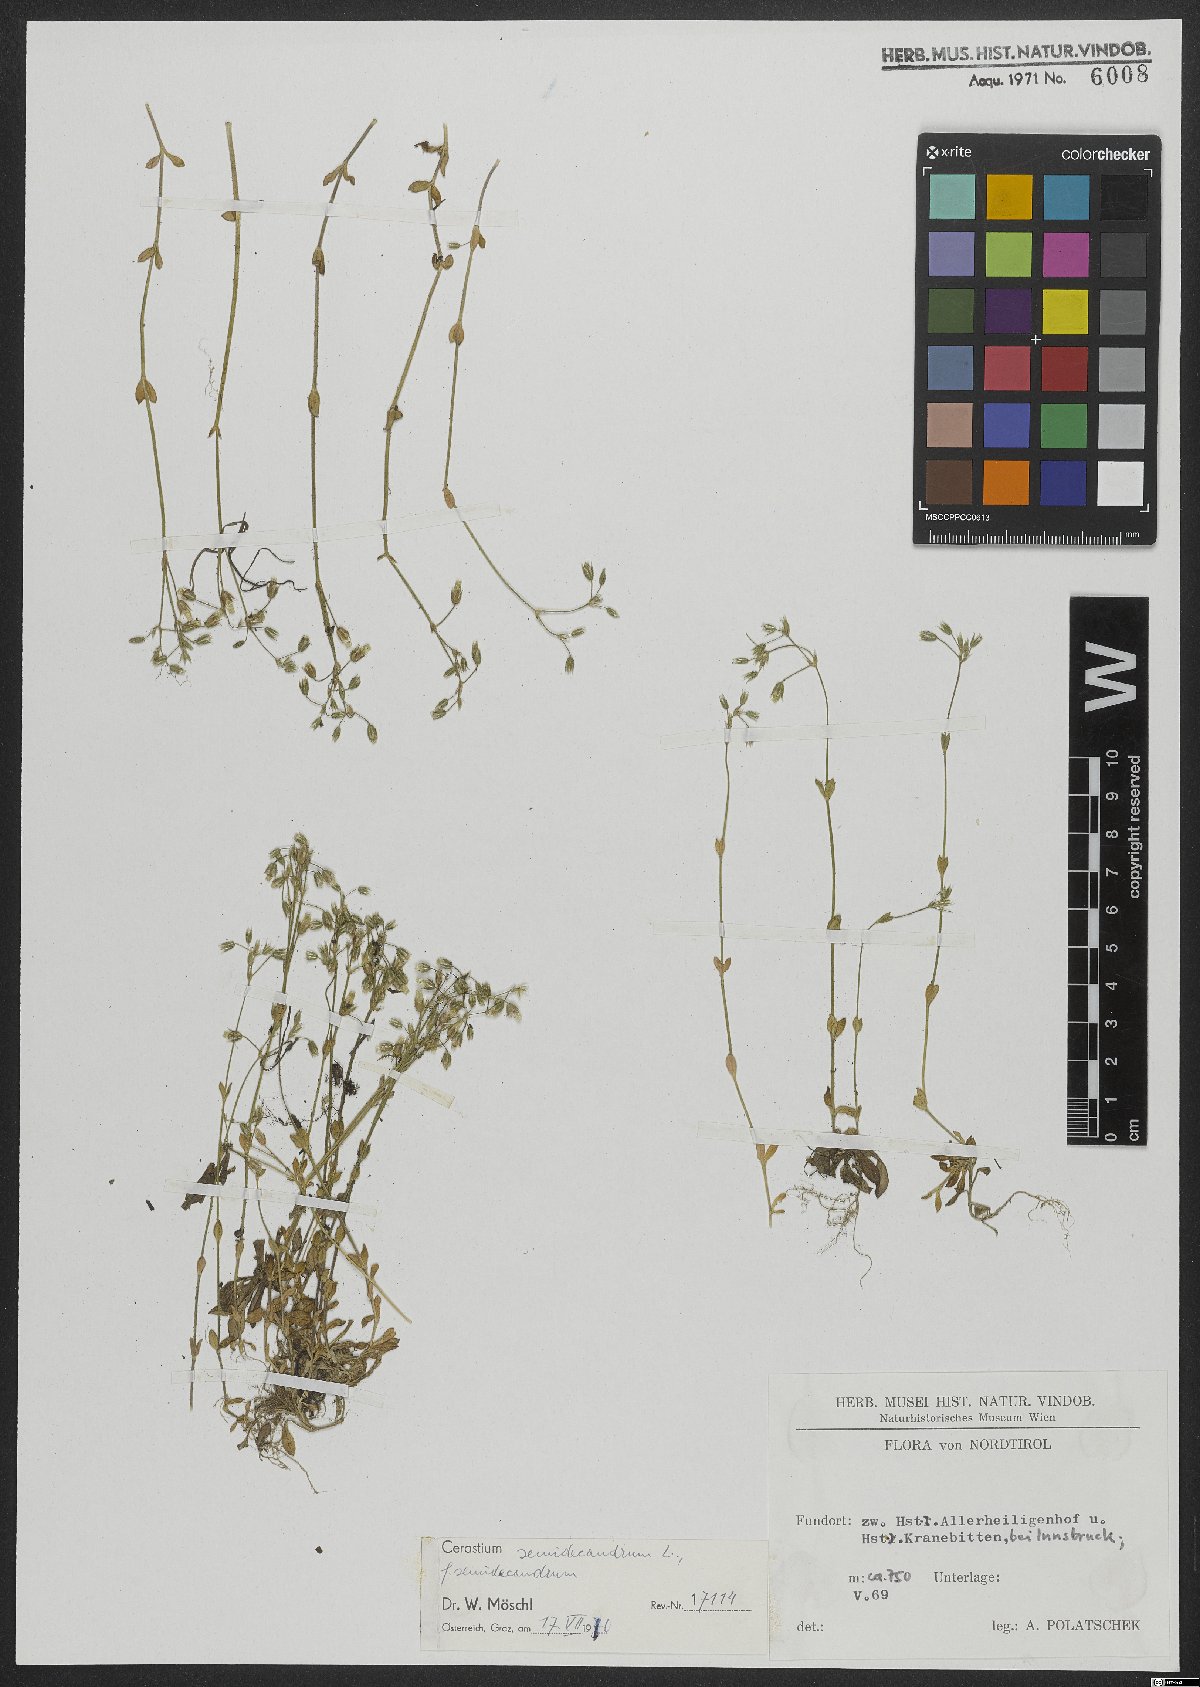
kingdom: Plantae
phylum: Tracheophyta
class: Magnoliopsida
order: Caryophyllales
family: Caryophyllaceae
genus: Cerastium
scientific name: Cerastium semidecandrum
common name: Little mouse-ear
